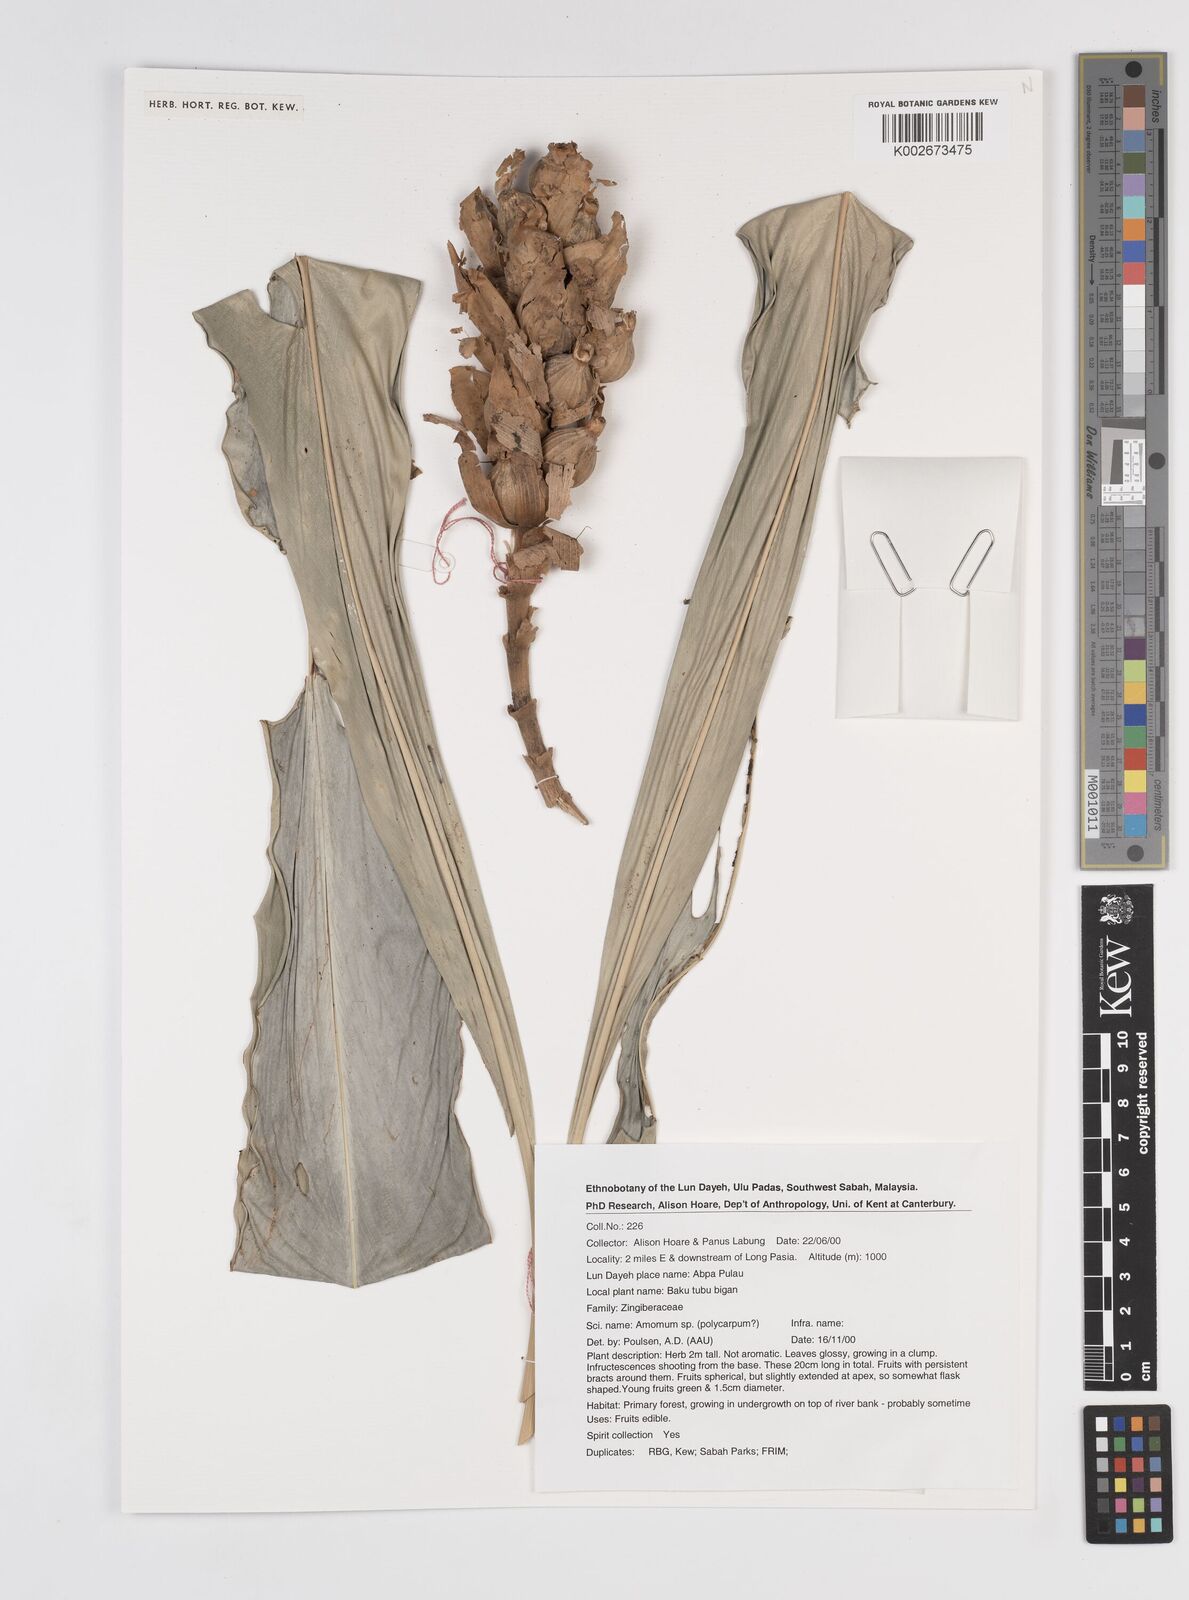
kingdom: Plantae
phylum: Tracheophyta
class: Liliopsida
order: Zingiberales
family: Zingiberaceae
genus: Etlingera
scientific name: Etlingera polycarpa
